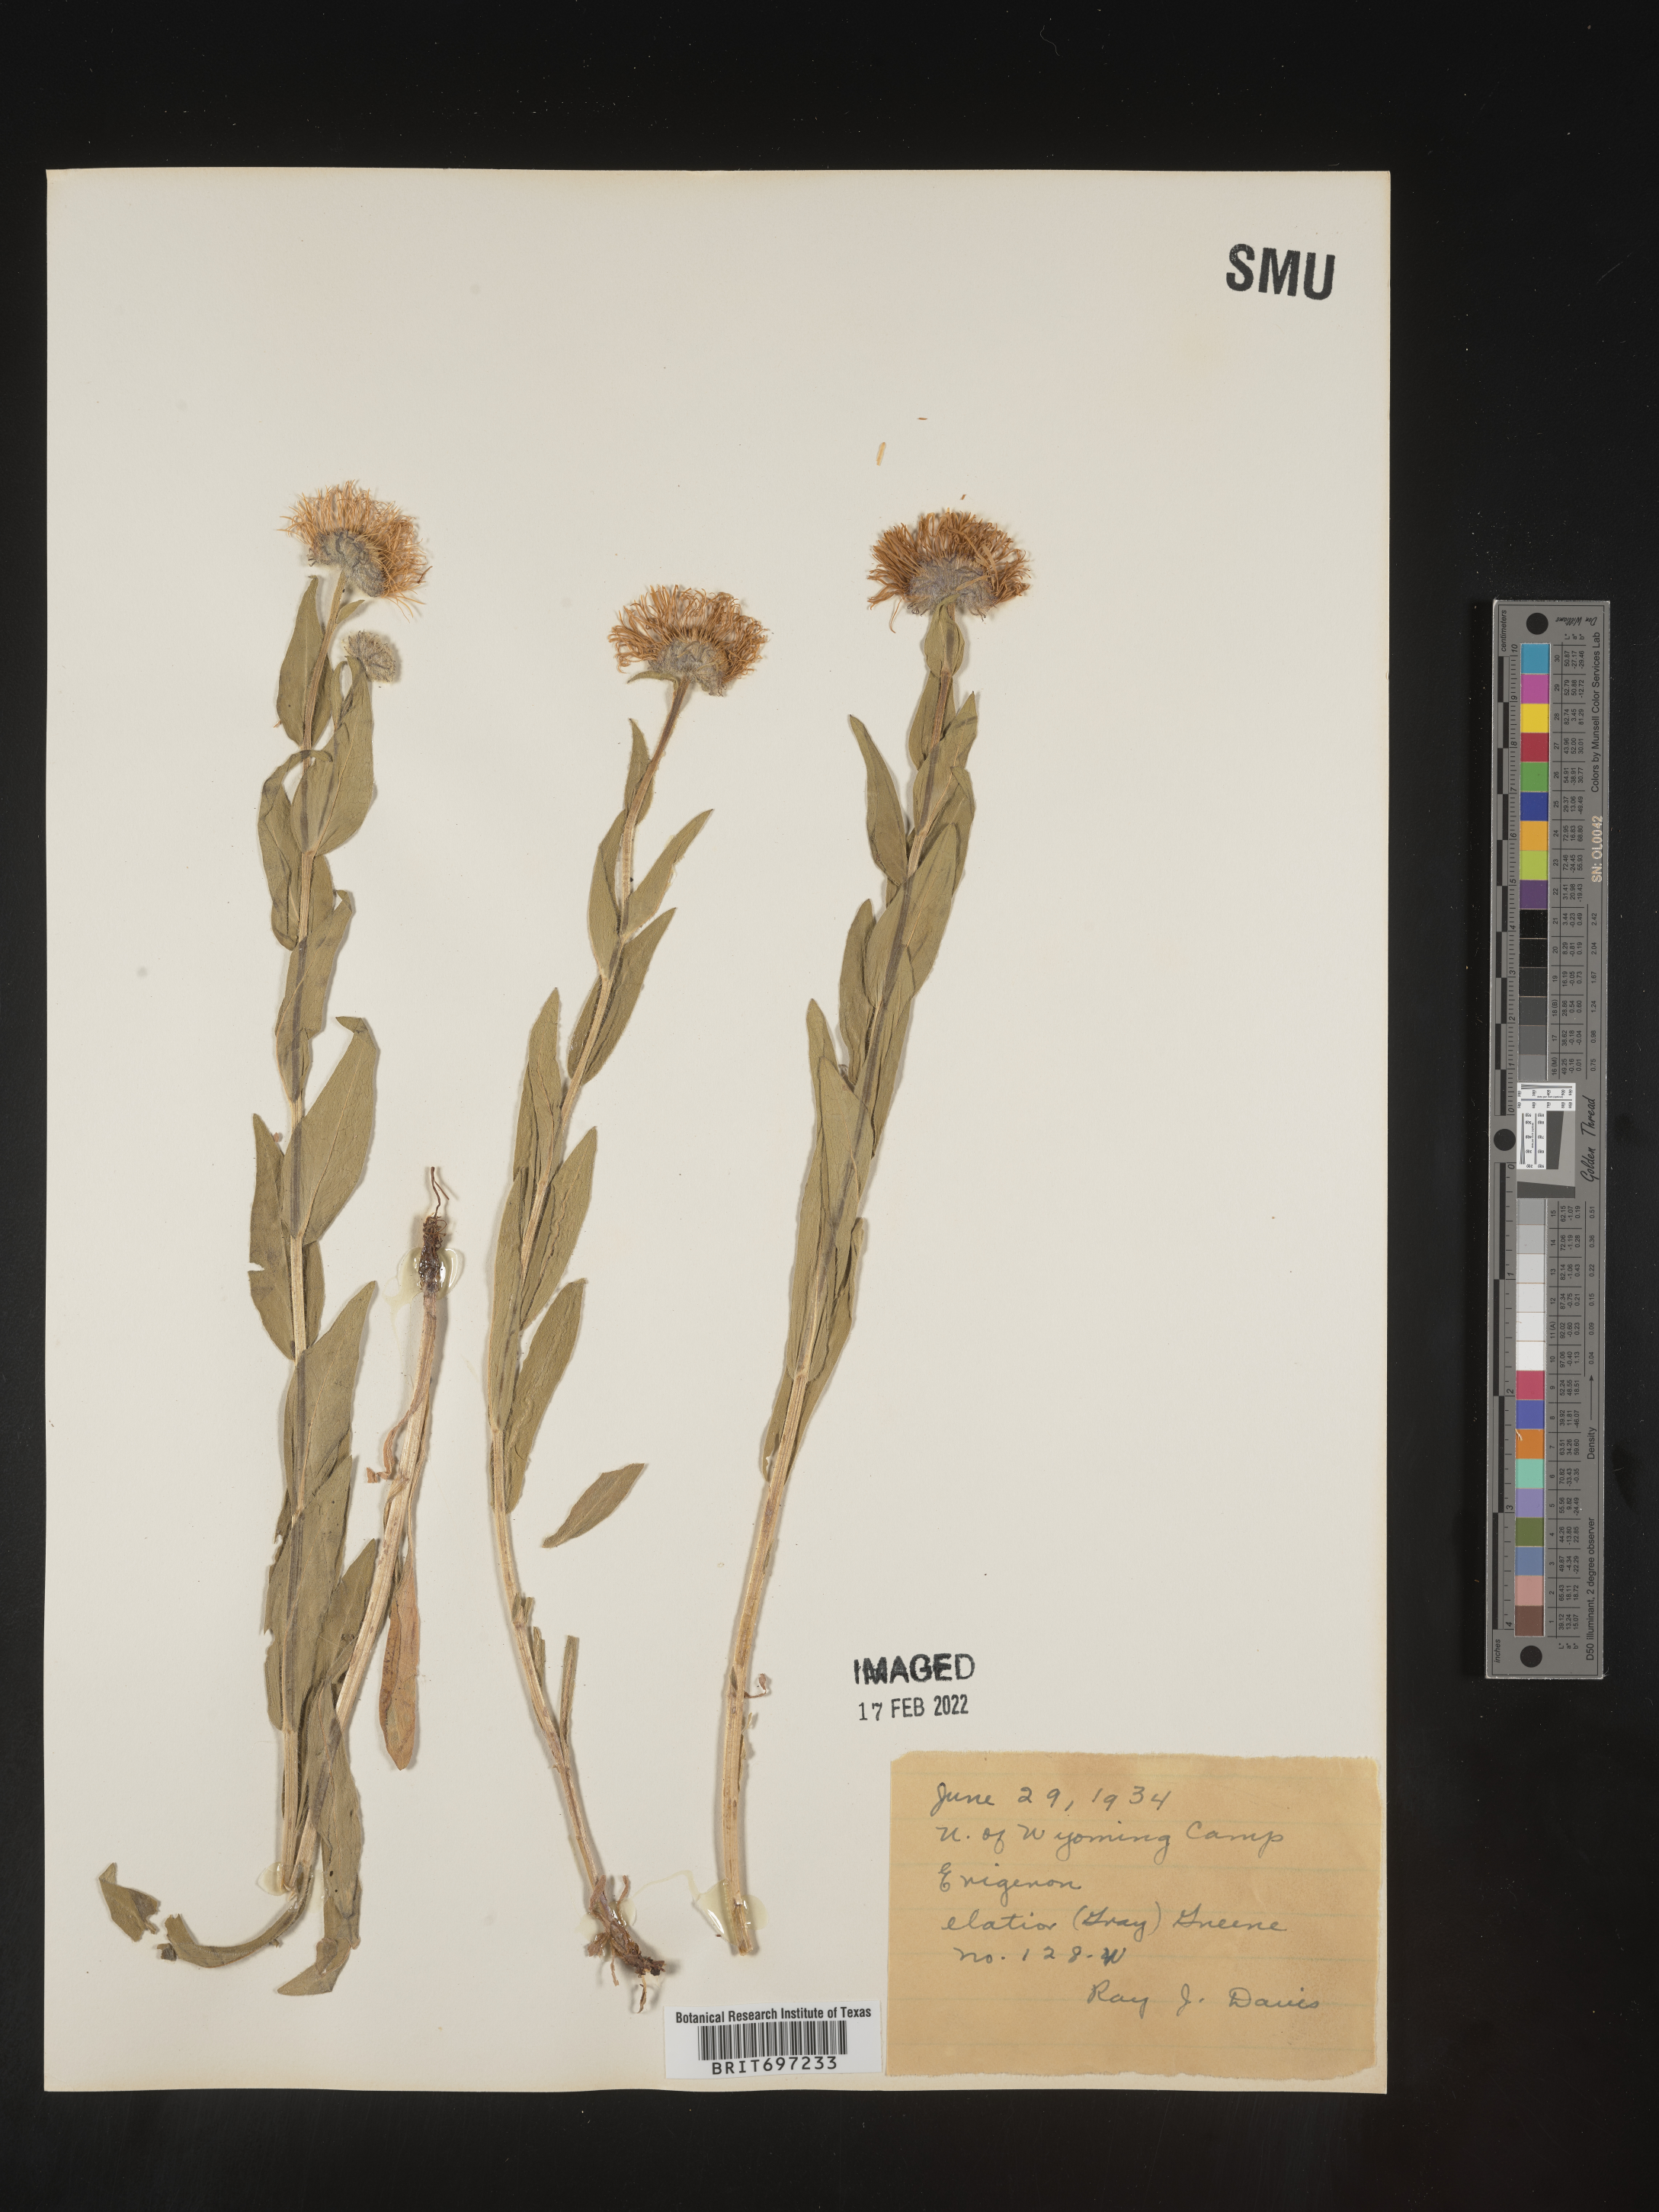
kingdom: Plantae
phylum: Tracheophyta
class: Magnoliopsida
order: Asterales
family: Asteraceae
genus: Erigeron
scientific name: Erigeron elatior
